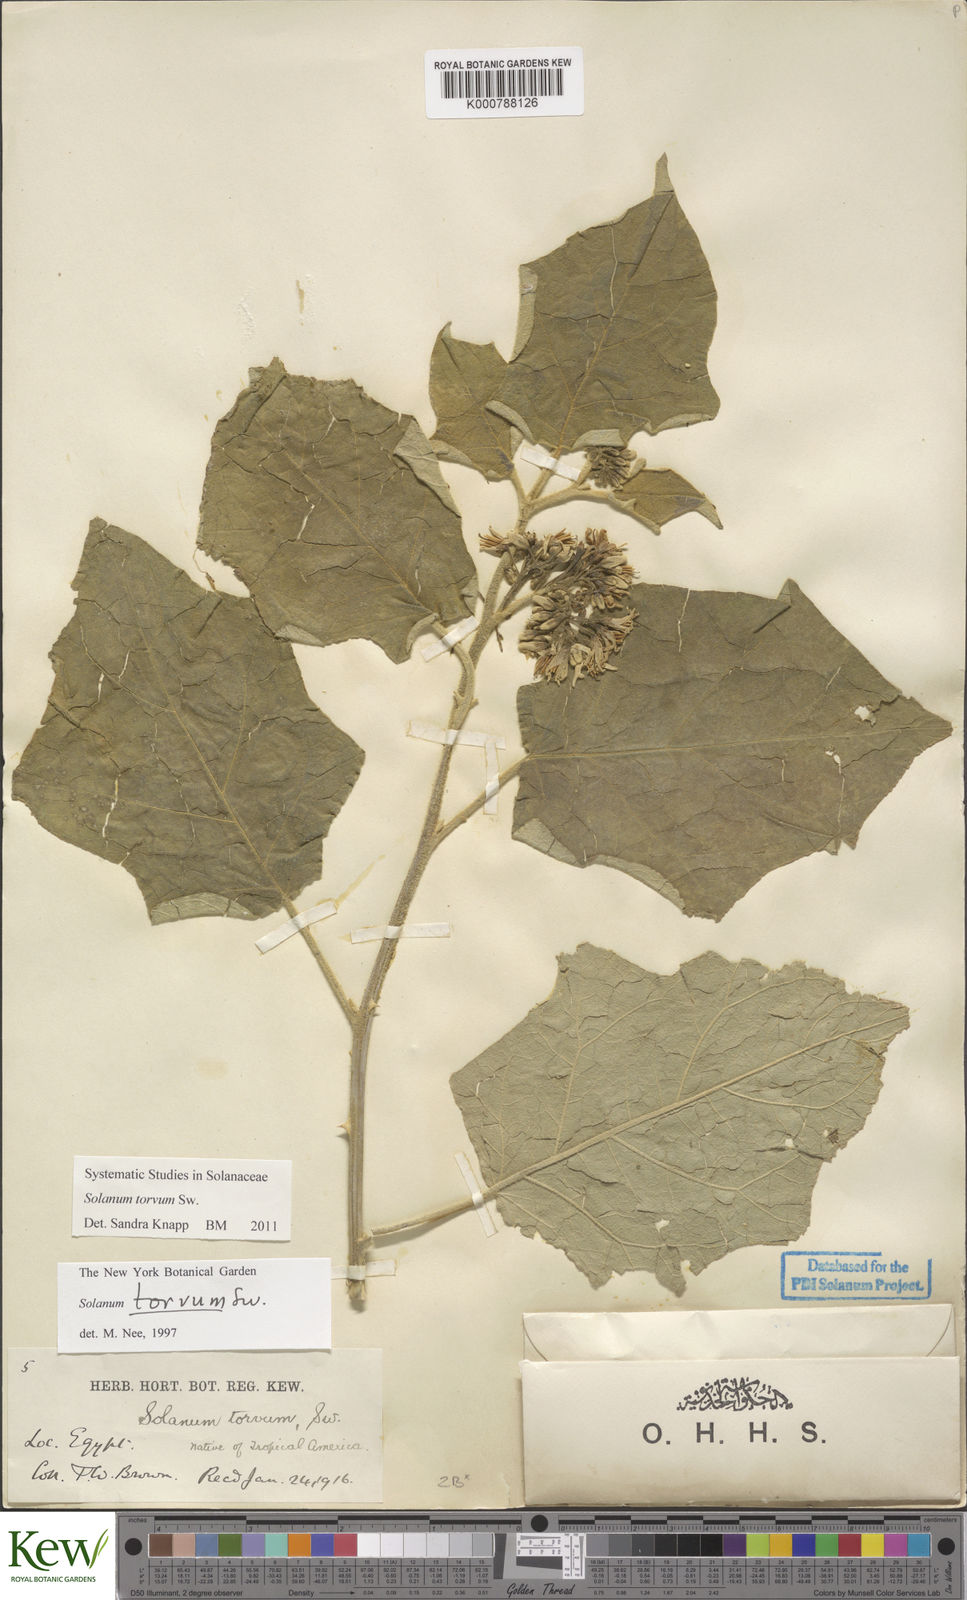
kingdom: Plantae
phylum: Tracheophyta
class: Magnoliopsida
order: Solanales
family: Solanaceae
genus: Solanum
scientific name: Solanum torvum
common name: Turkey berry
